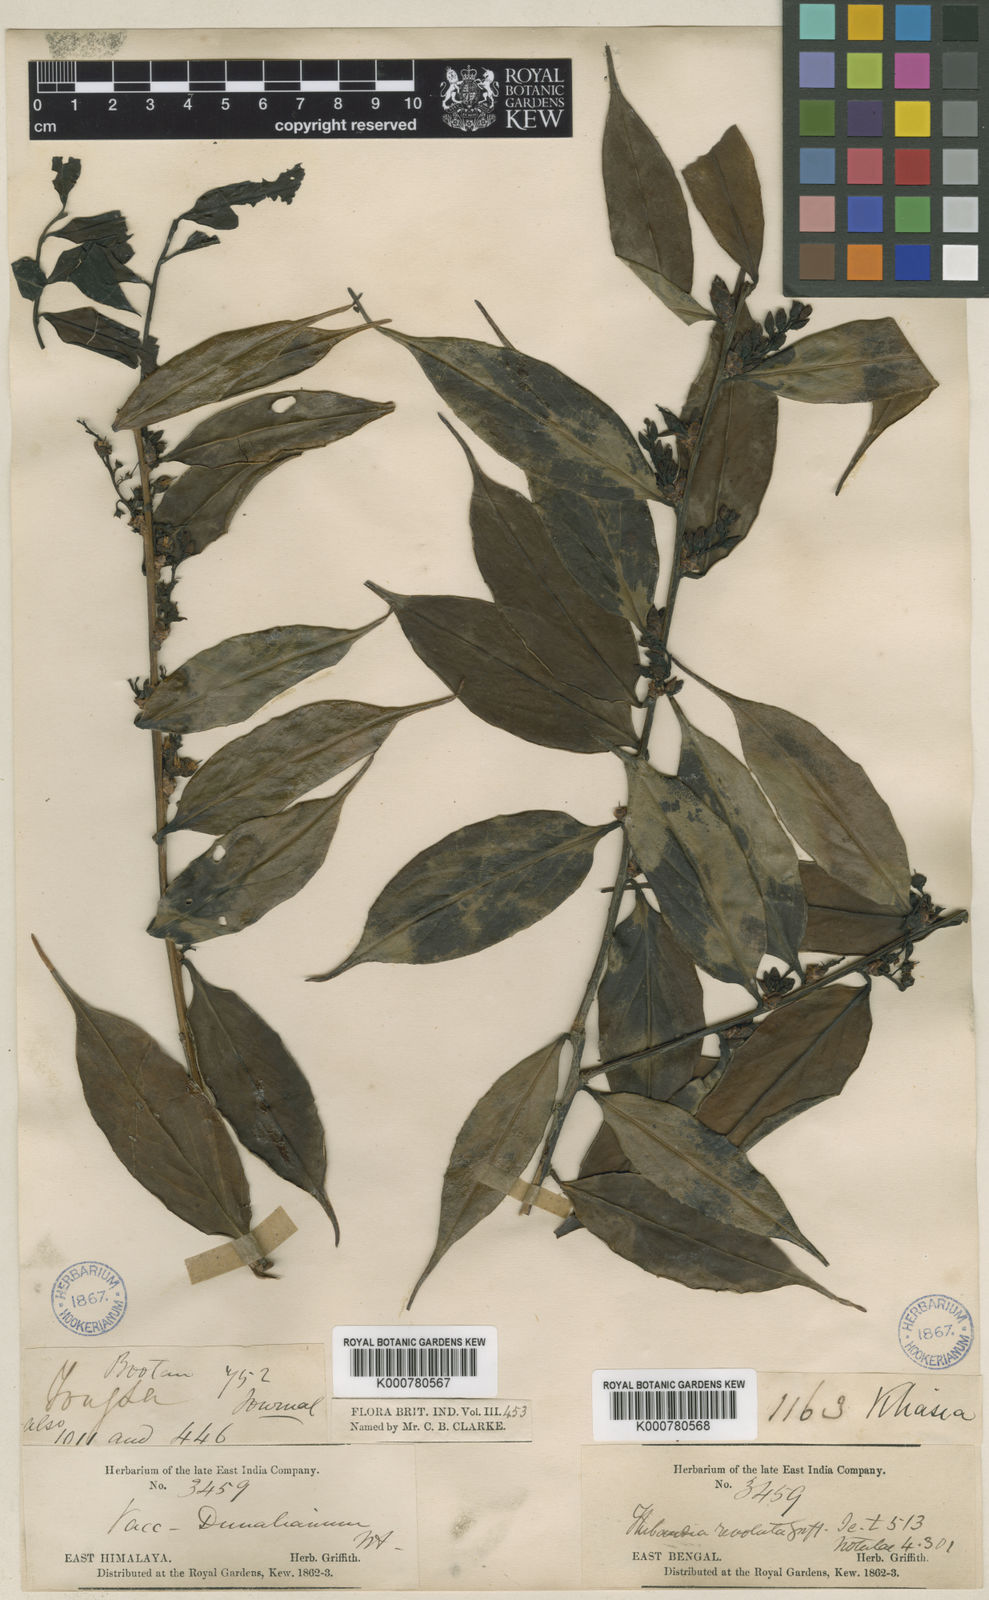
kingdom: Plantae
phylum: Tracheophyta
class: Magnoliopsida
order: Ericales
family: Ericaceae
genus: Vaccinium
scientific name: Vaccinium dunalianum
